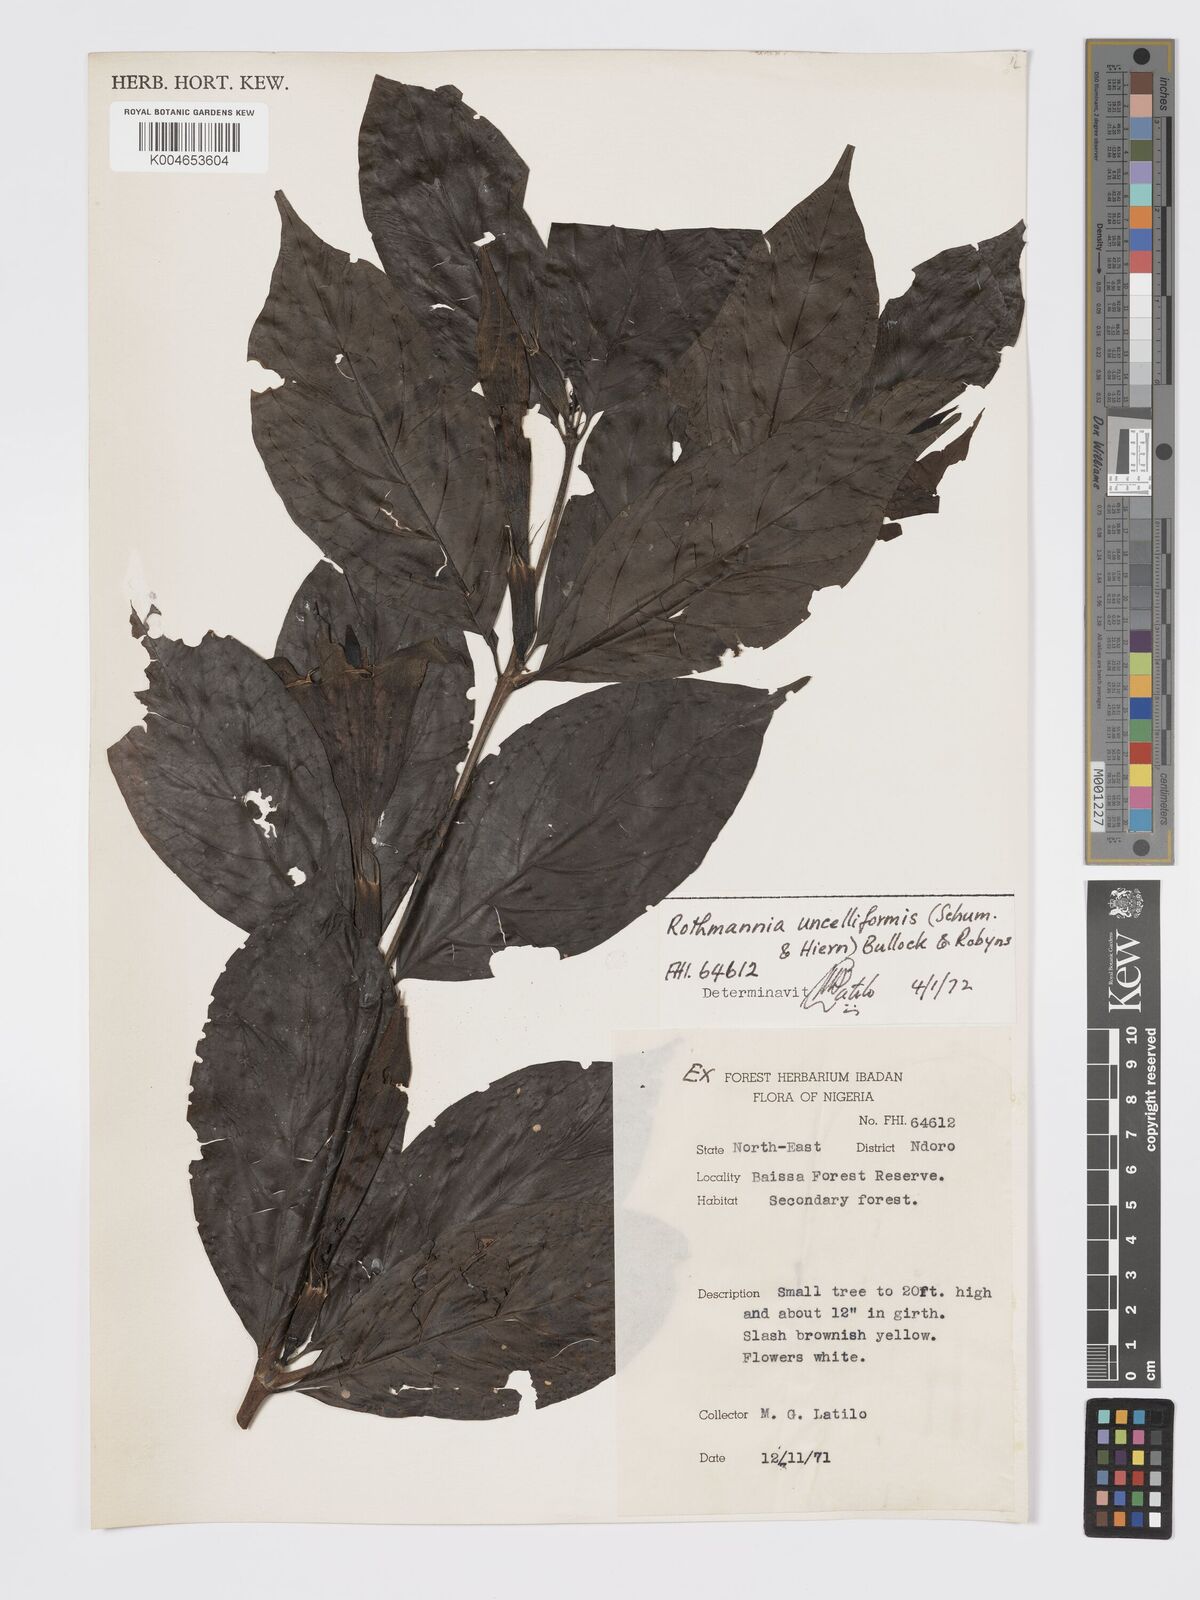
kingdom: Plantae
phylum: Tracheophyta
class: Magnoliopsida
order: Gentianales
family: Rubiaceae
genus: Rothmannia
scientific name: Rothmannia urcelliformis
